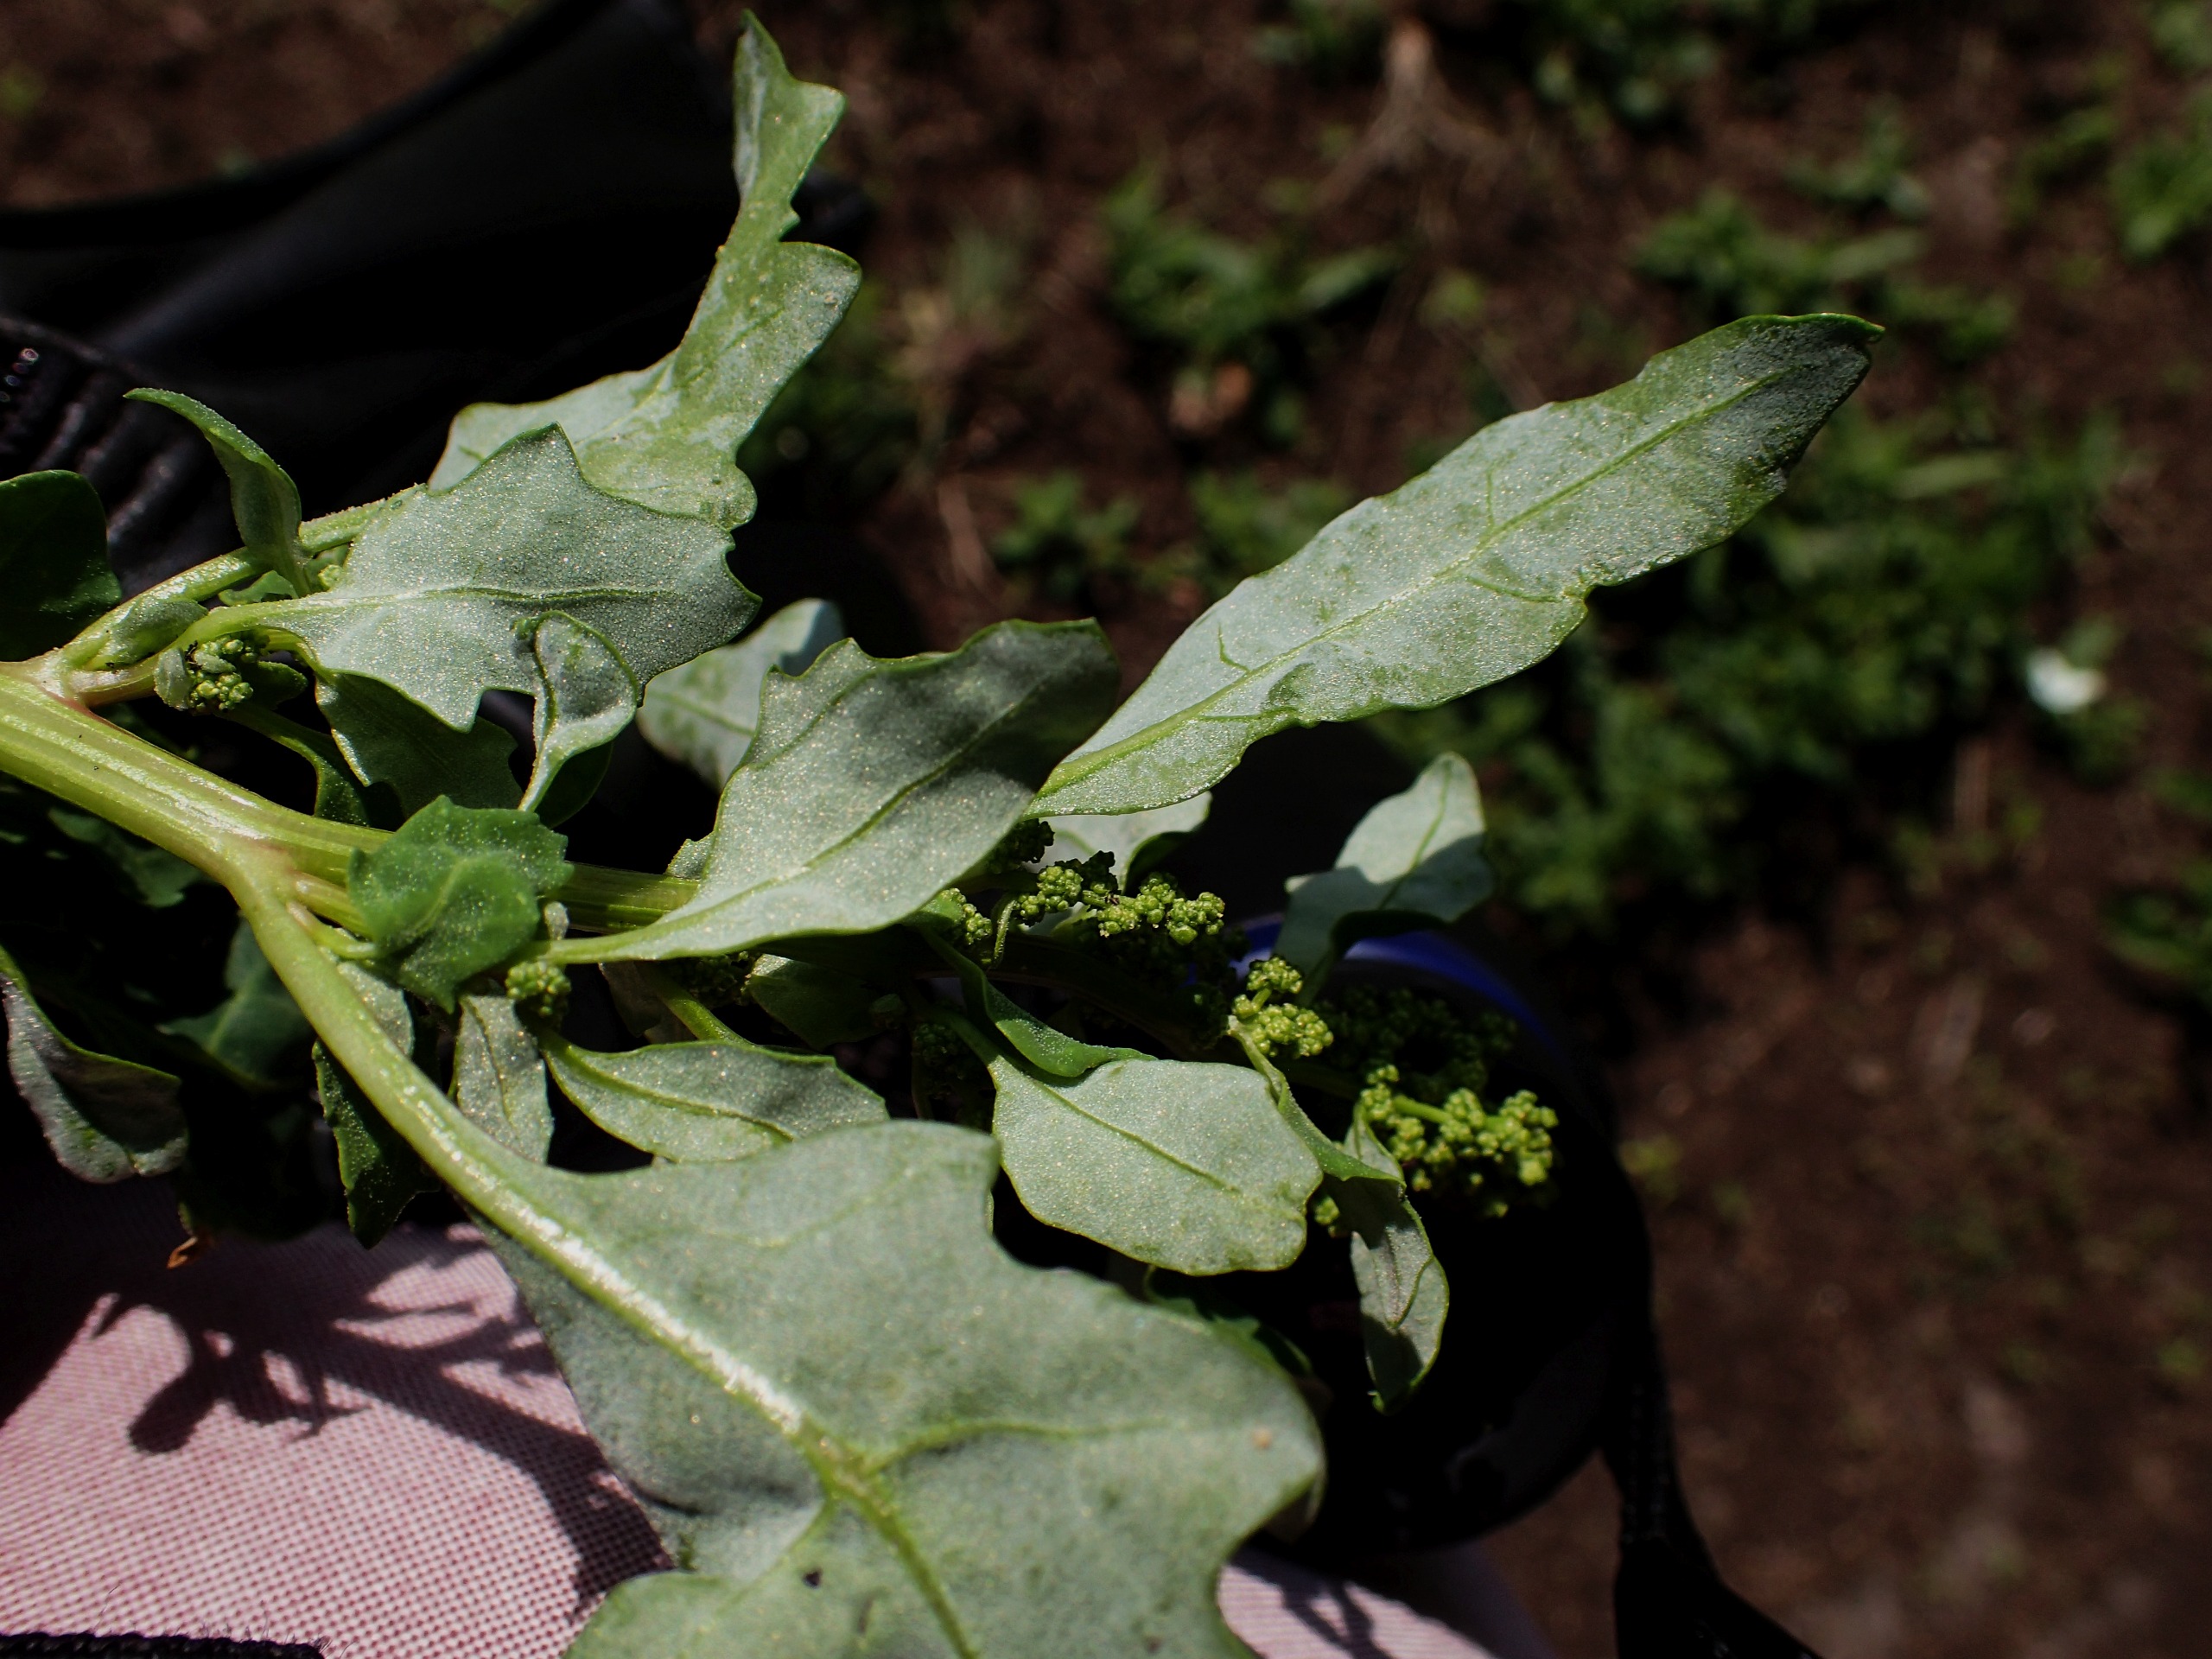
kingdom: Plantae
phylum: Tracheophyta
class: Magnoliopsida
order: Caryophyllales
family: Amaranthaceae
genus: Oxybasis
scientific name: Oxybasis glauca
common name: Blågrøn gåsefod
